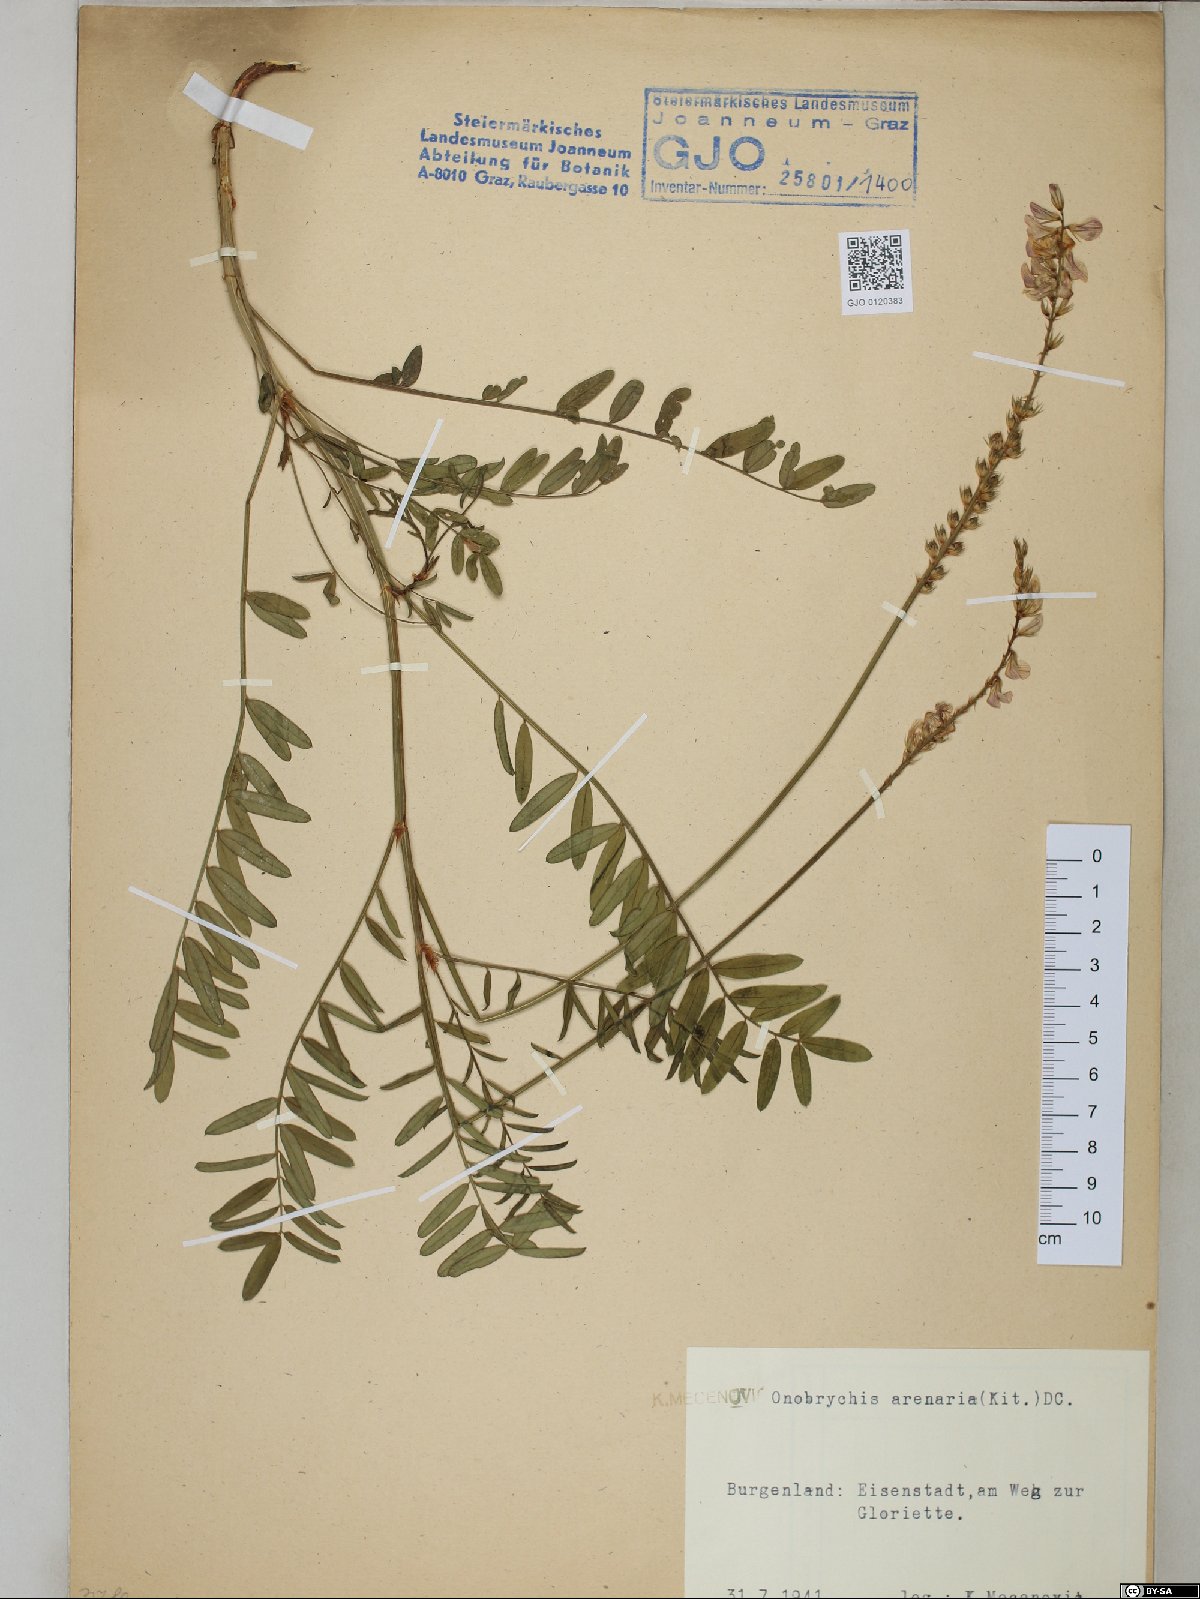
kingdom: Plantae
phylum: Tracheophyta
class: Magnoliopsida
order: Fabales
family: Fabaceae
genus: Onobrychis
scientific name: Onobrychis arenaria
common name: Sand esparcet
